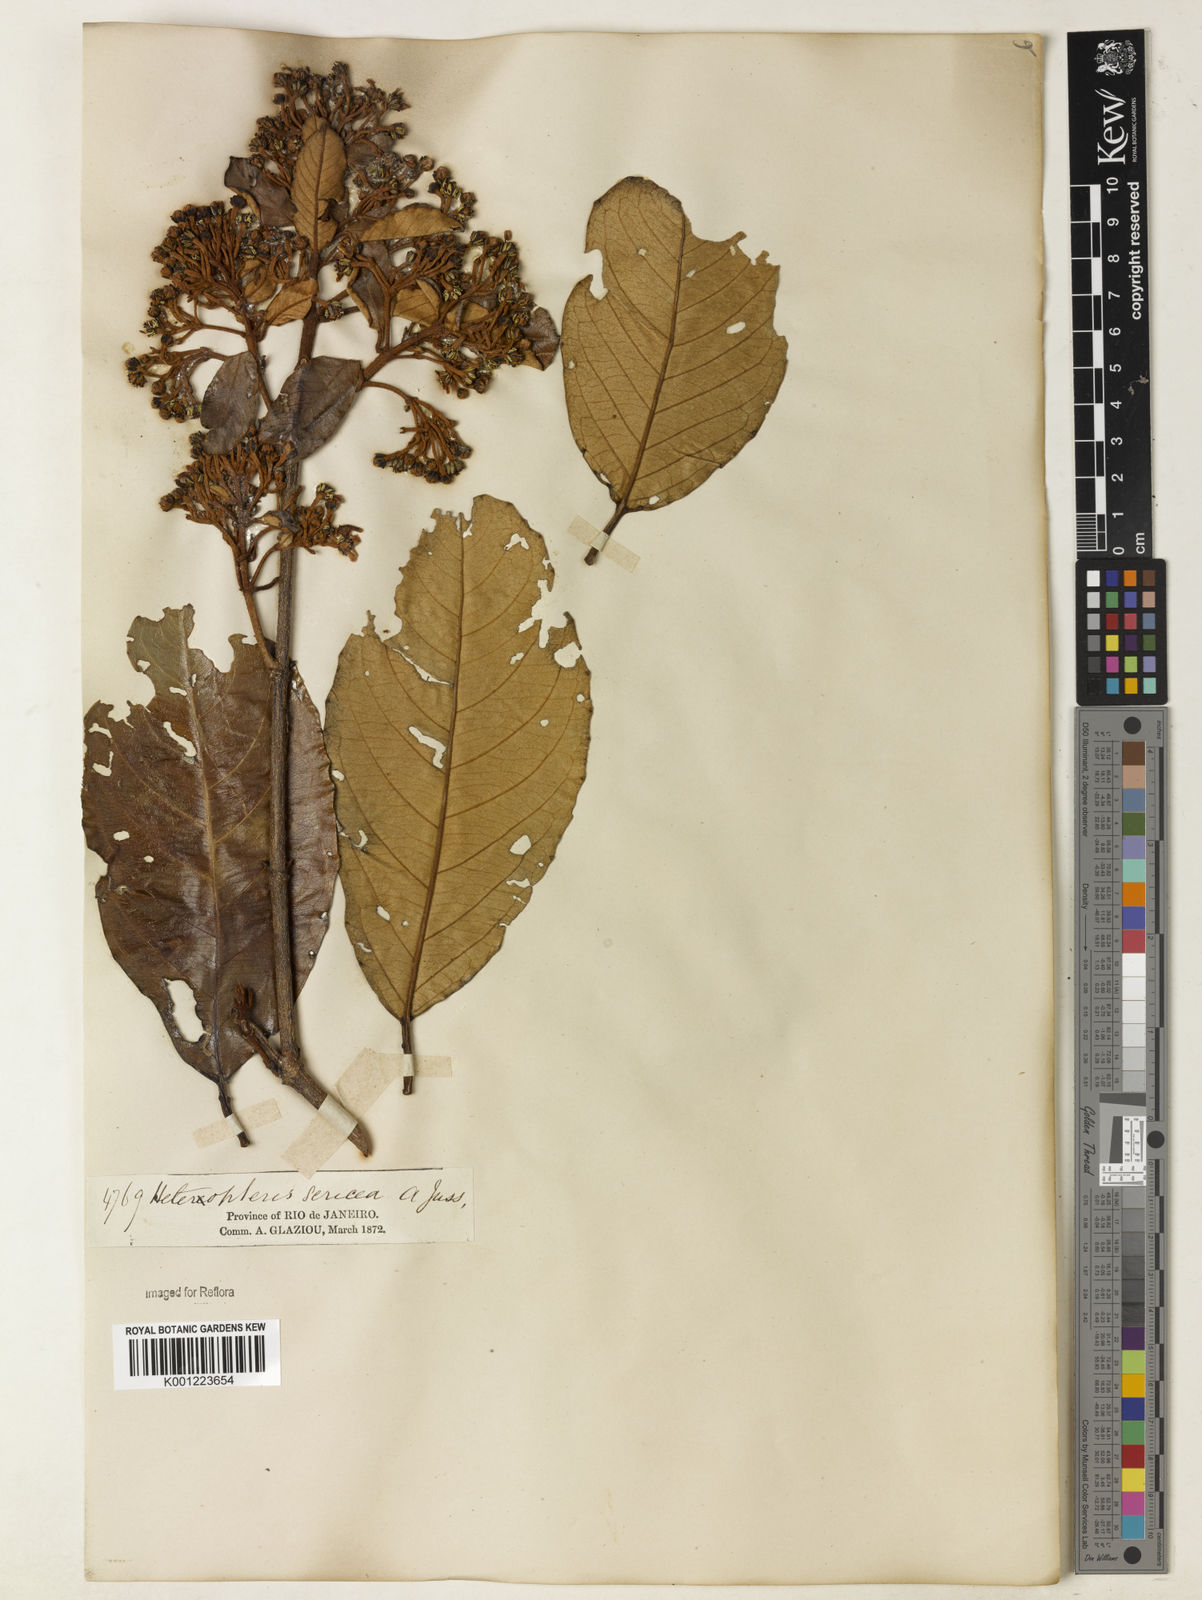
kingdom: Plantae
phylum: Tracheophyta
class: Magnoliopsida
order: Malpighiales
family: Malpighiaceae
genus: Heteropterys
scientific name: Heteropterys sericea
